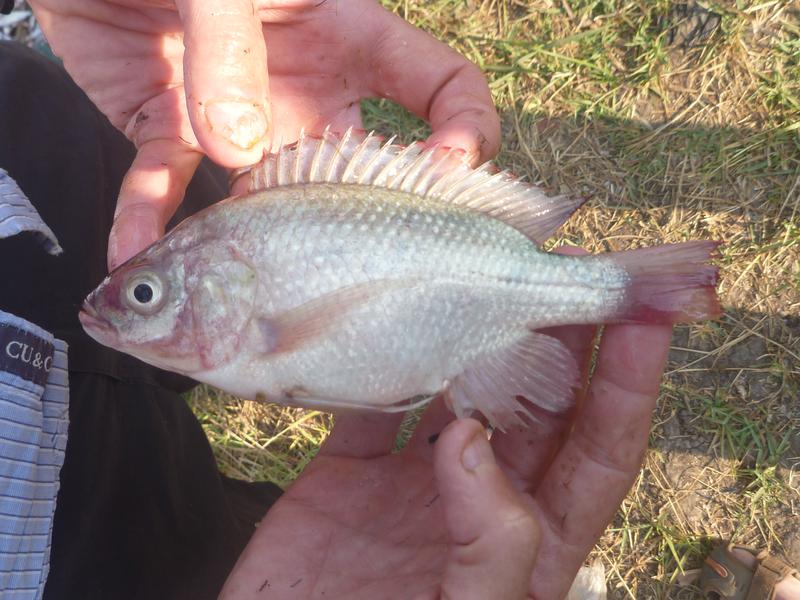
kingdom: Animalia
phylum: Chordata
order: Perciformes
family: Cichlidae
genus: Oreochromis
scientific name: Oreochromis esculentus
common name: Carp
